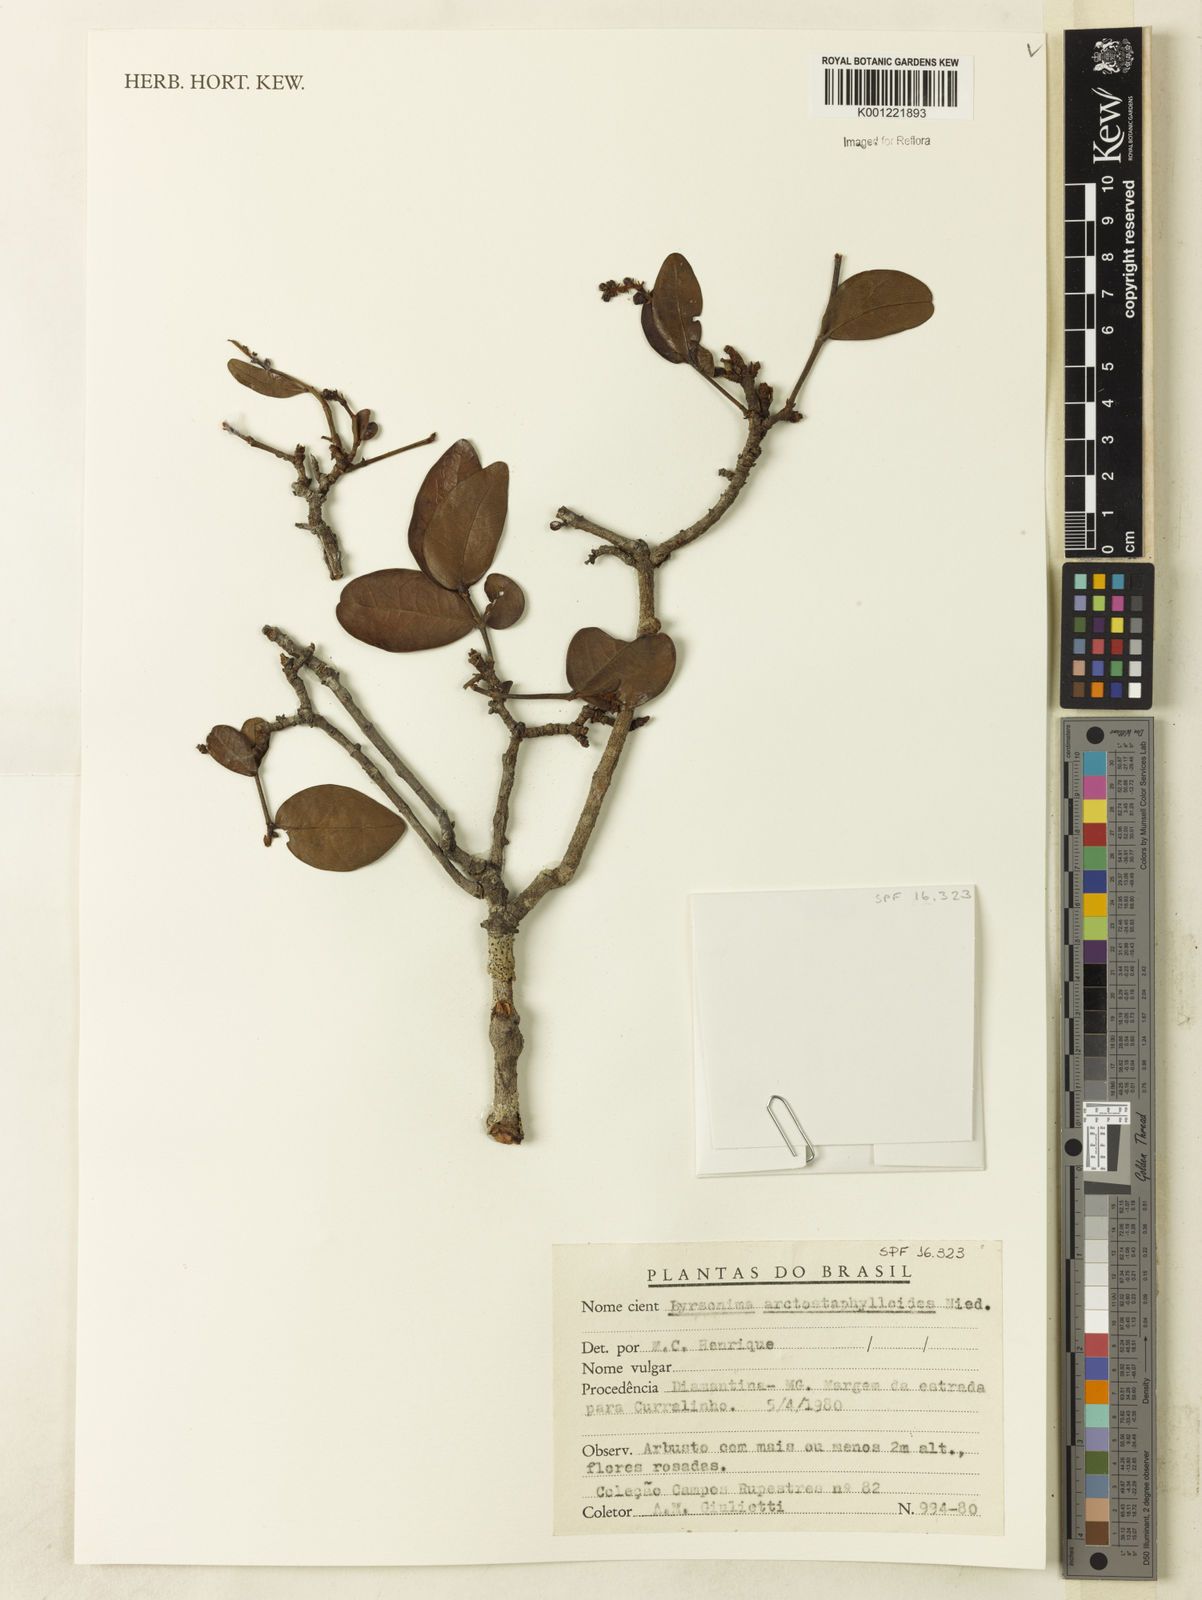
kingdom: Plantae
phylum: Tracheophyta
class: Magnoliopsida
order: Malpighiales
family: Malpighiaceae
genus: Byrsonima
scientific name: Byrsonima arctostaphyloides
